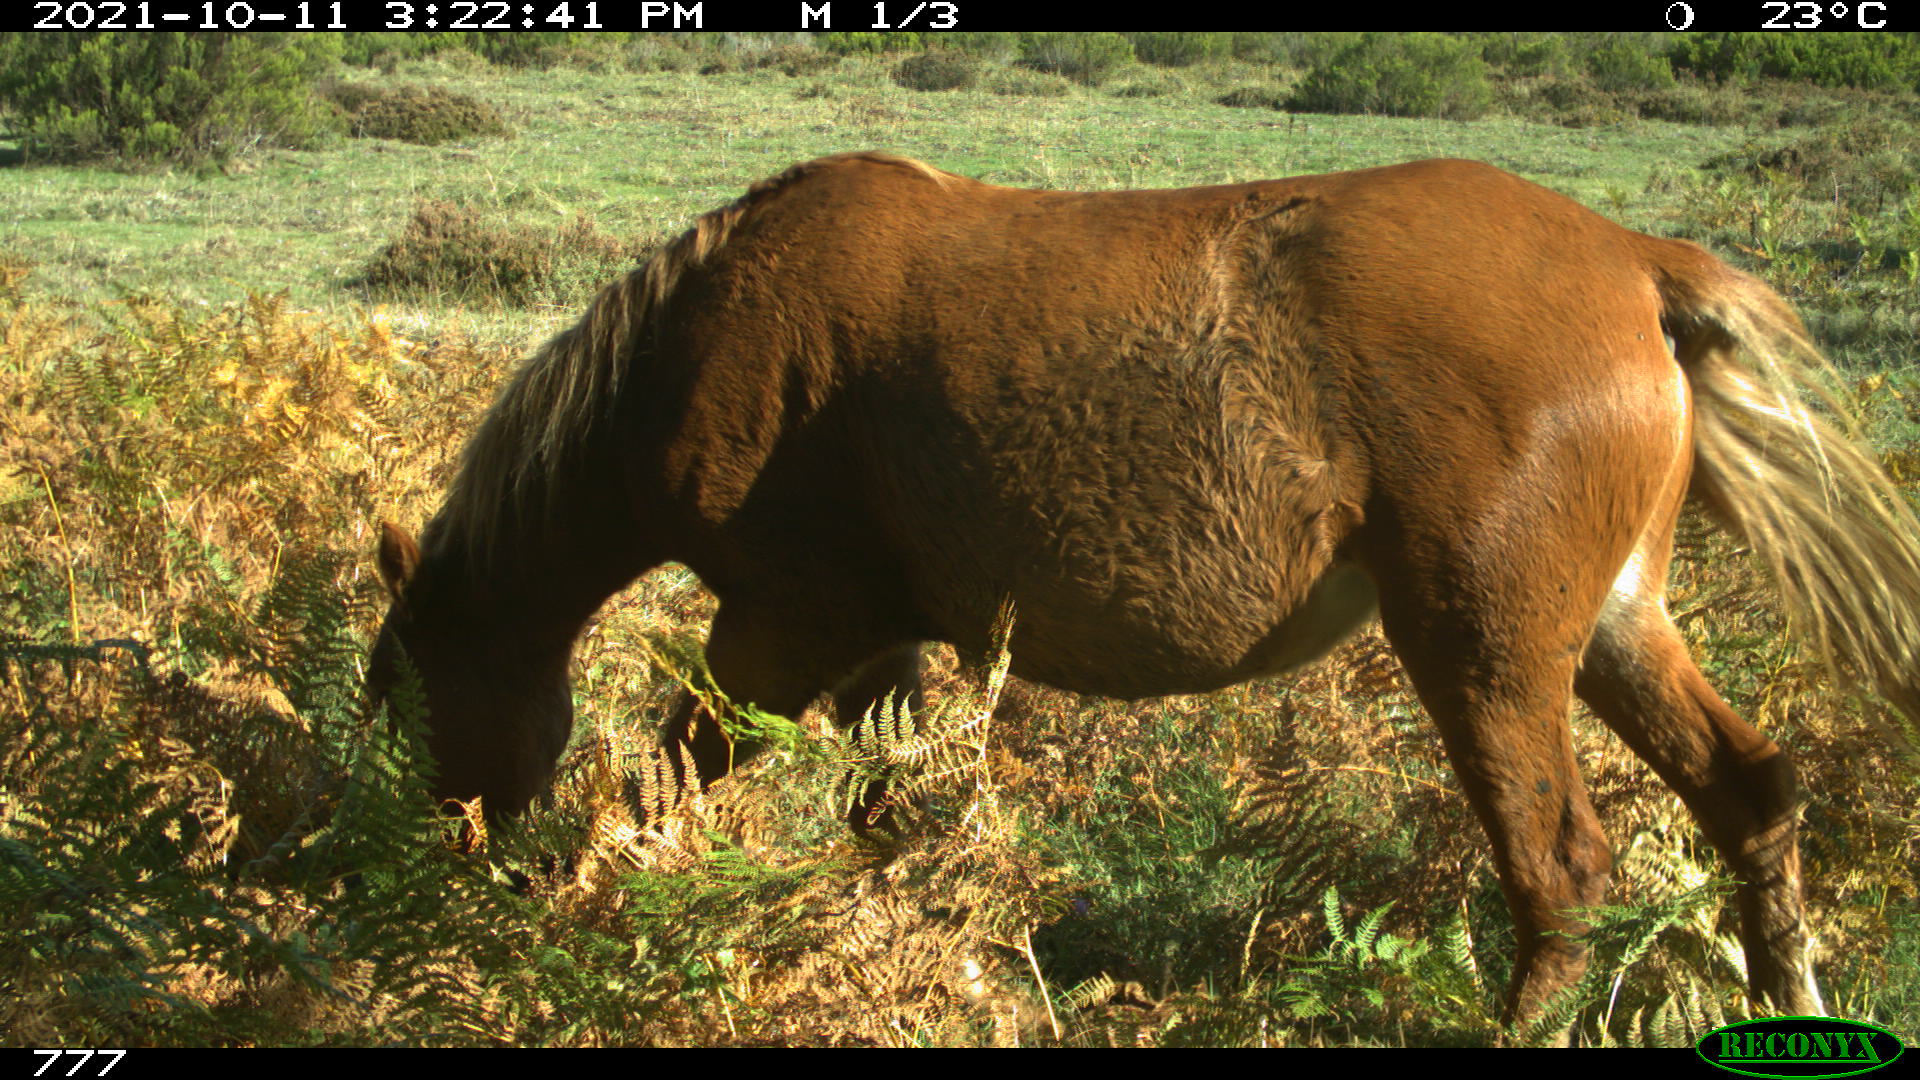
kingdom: Animalia
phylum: Chordata
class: Mammalia
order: Perissodactyla
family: Equidae
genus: Equus
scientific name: Equus caballus
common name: Horse
